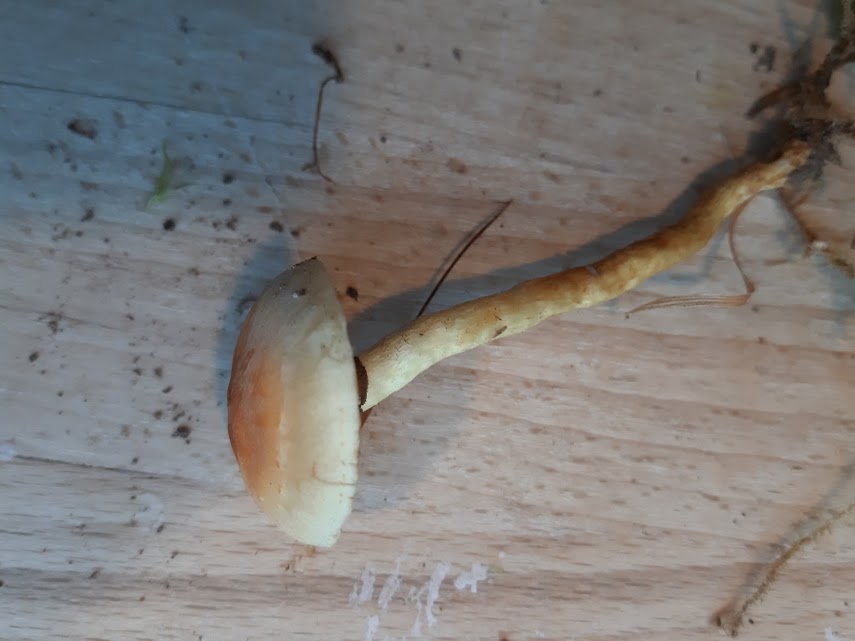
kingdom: Fungi
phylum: Basidiomycota
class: Agaricomycetes
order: Agaricales
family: Strophariaceae
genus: Hypholoma
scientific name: Hypholoma capnoides
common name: gran-svovlhat
